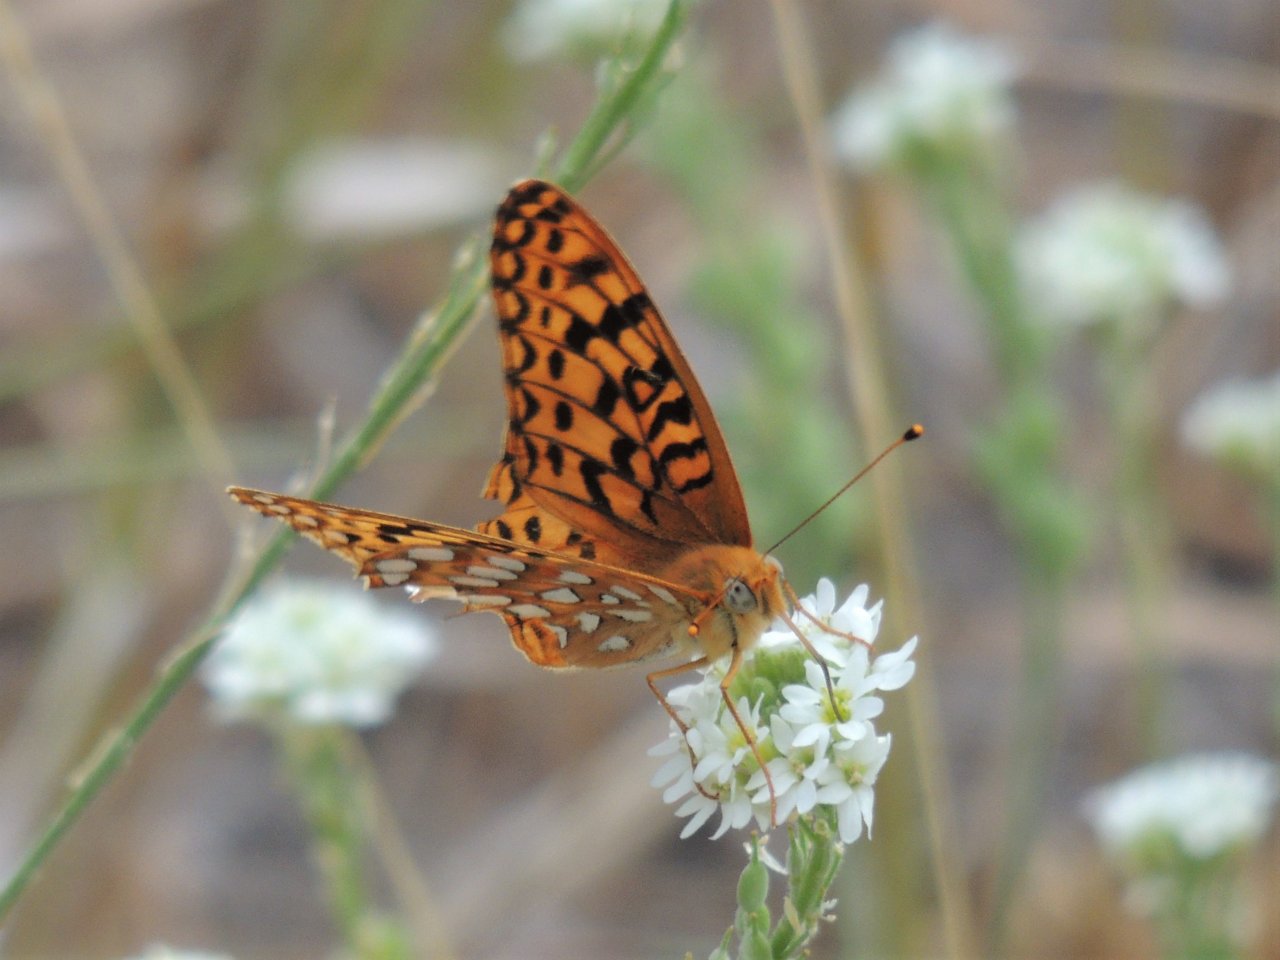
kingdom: Animalia
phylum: Arthropoda
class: Insecta
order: Lepidoptera
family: Nymphalidae
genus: Speyeria
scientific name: Speyeria zerene
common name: Zerene Fritillary
